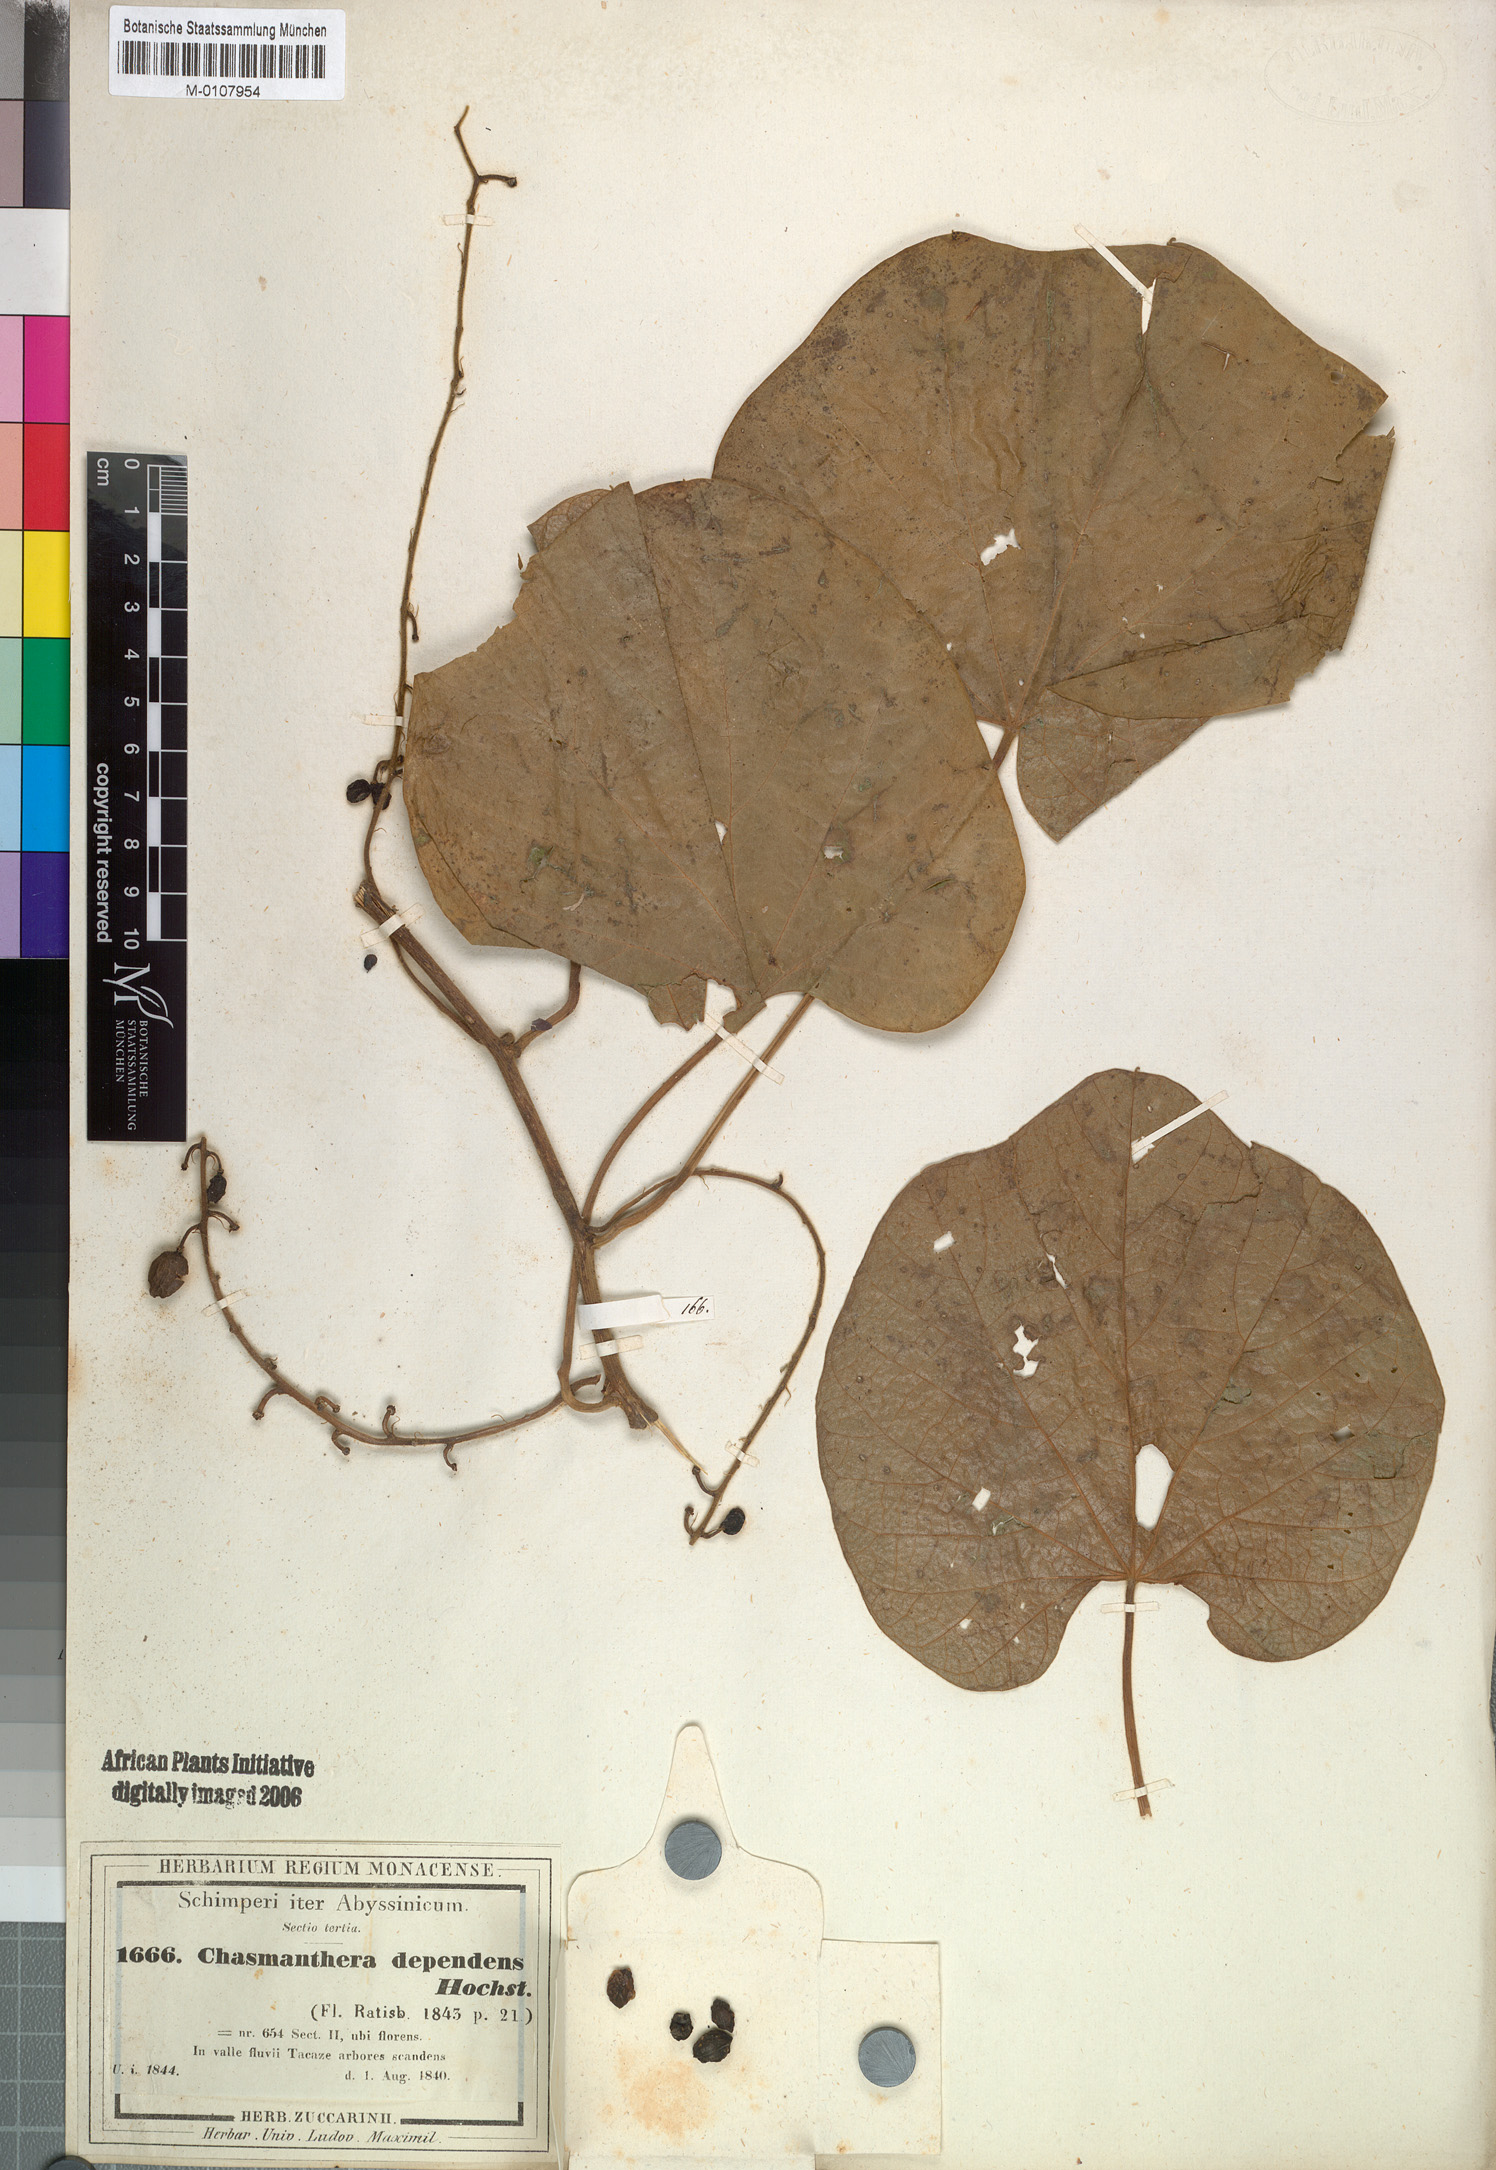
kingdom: Plantae
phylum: Tracheophyta
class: Magnoliopsida
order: Ranunculales
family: Menispermaceae
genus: Chasmanthera
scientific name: Chasmanthera dependens
